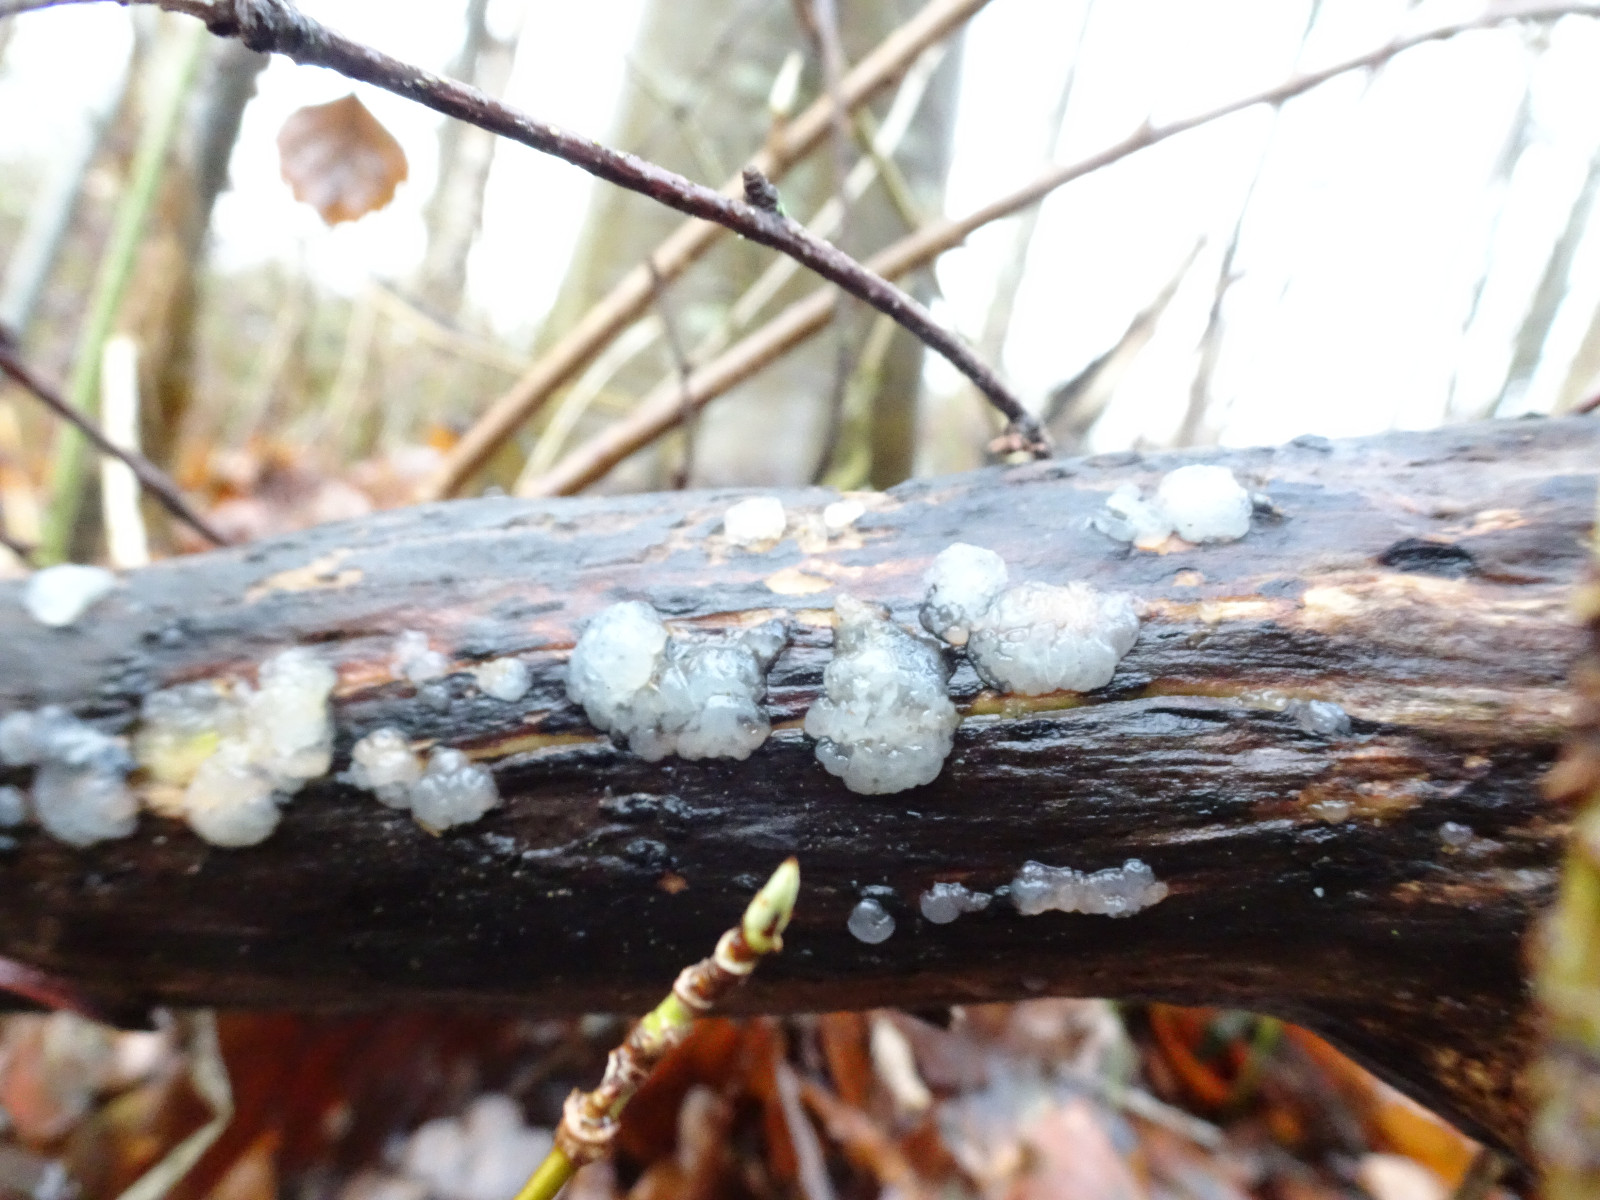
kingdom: Fungi
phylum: Basidiomycota
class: Agaricomycetes
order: Auriculariales
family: Auriculariaceae
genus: Exidia
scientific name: Exidia thuretiana
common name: hvidlig bævretop
